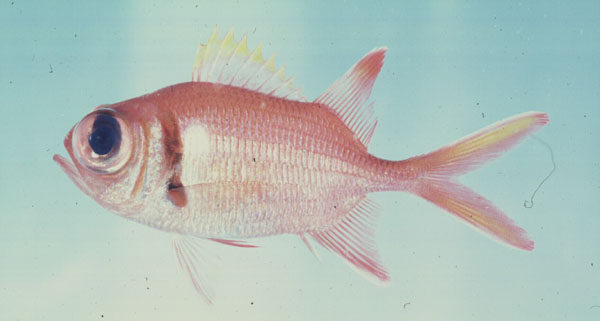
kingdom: Animalia
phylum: Chordata
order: Beryciformes
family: Holocentridae
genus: Myripristis
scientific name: Myripristis kuntee
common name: Epaulette soldierfish
